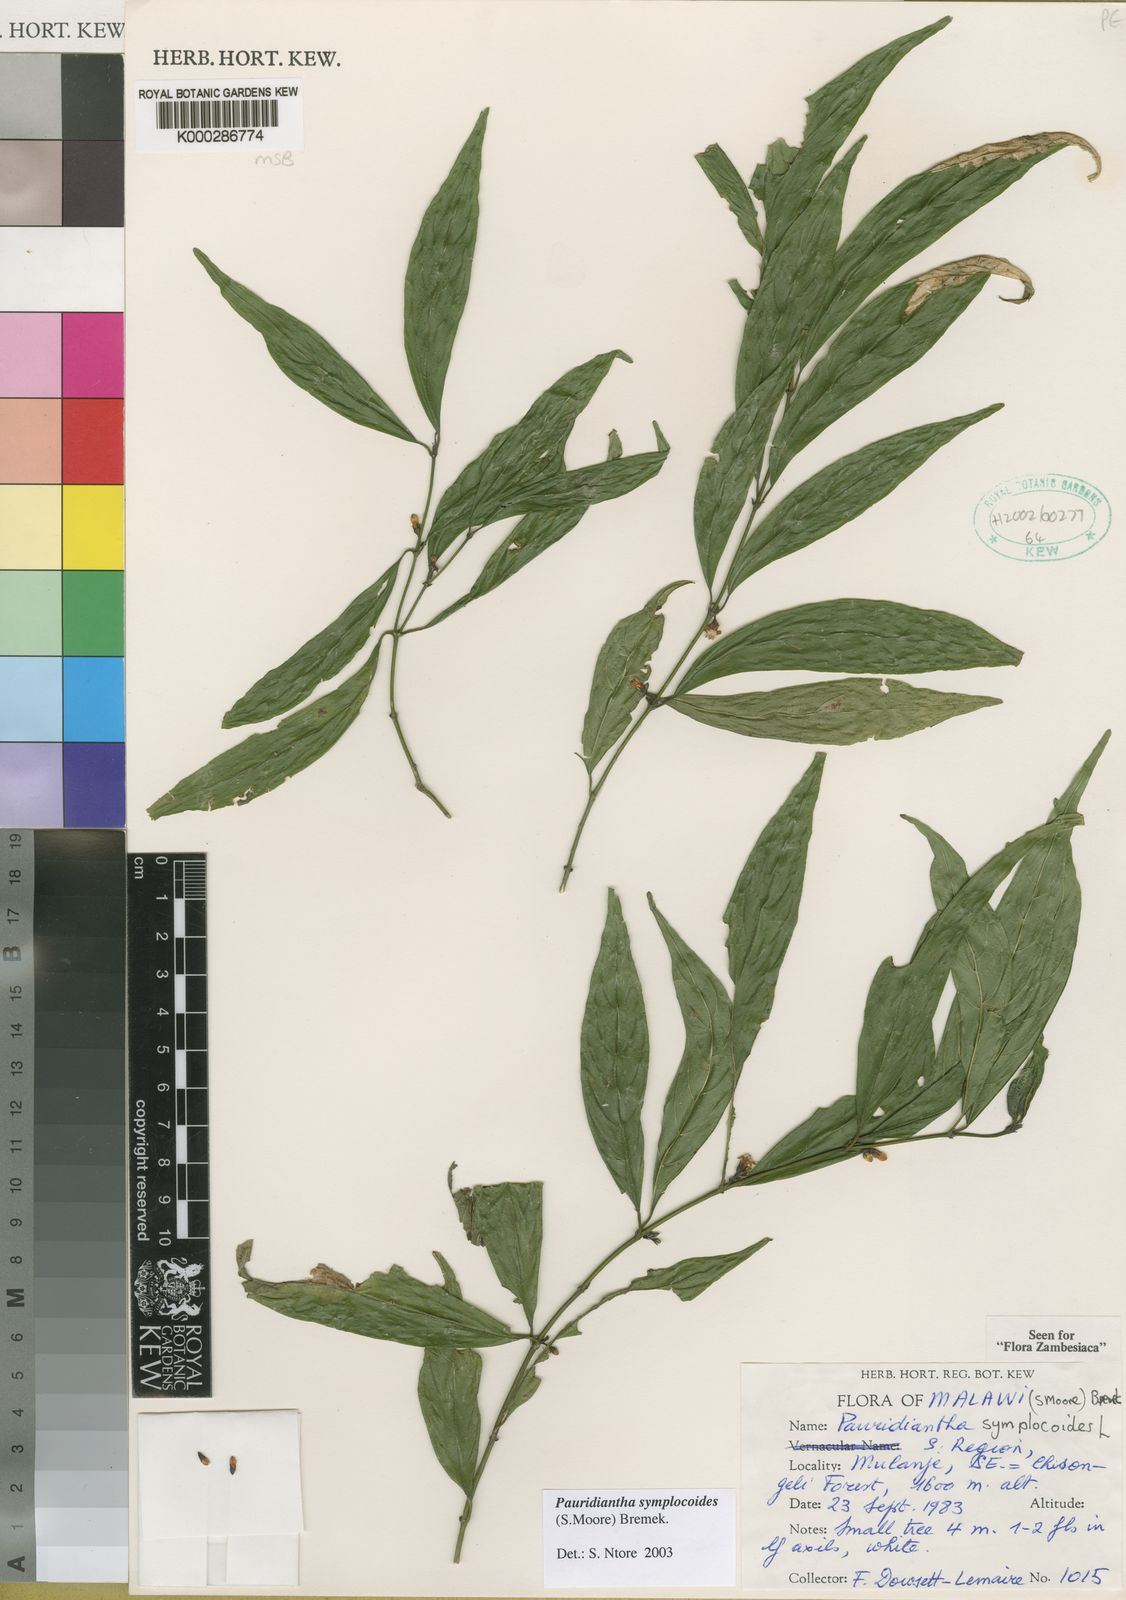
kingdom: Plantae
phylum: Tracheophyta
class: Magnoliopsida
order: Gentianales
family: Rubiaceae
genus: Pauridiantha
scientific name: Pauridiantha symplocoides
